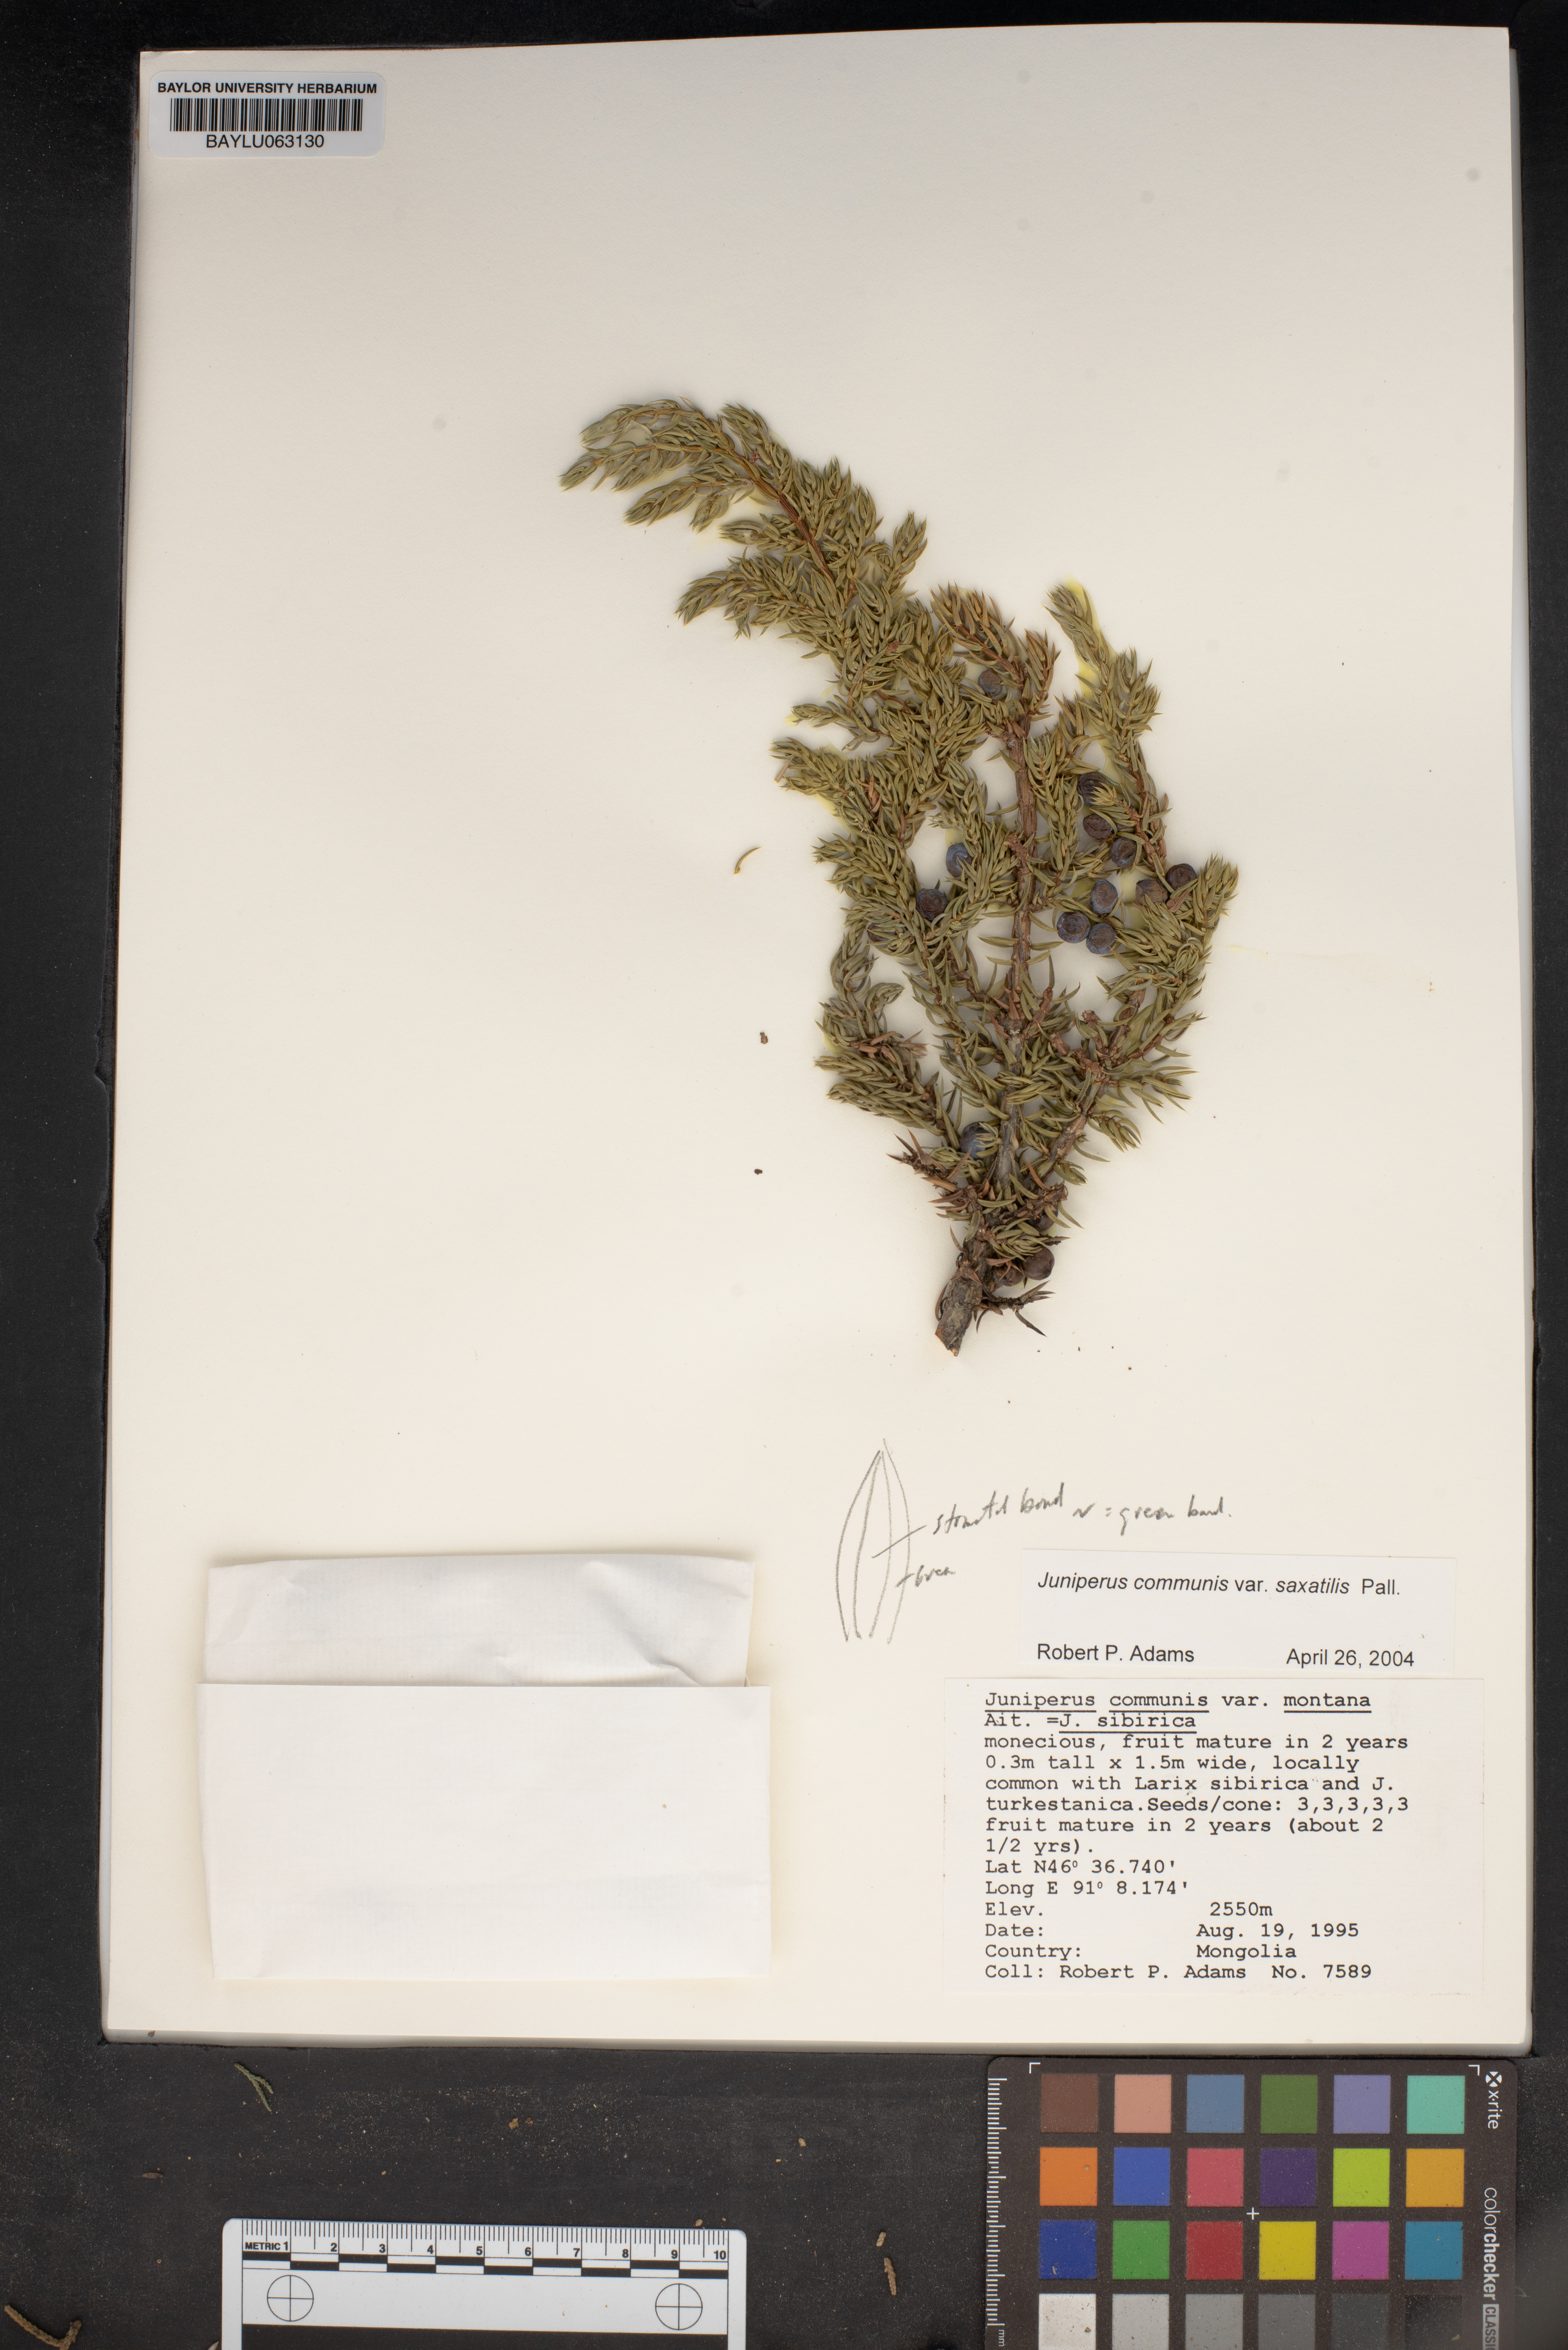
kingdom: Plantae
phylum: Tracheophyta
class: Pinopsida
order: Pinales
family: Cupressaceae
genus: Juniperus
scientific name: Juniperus communis
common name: Common juniper
